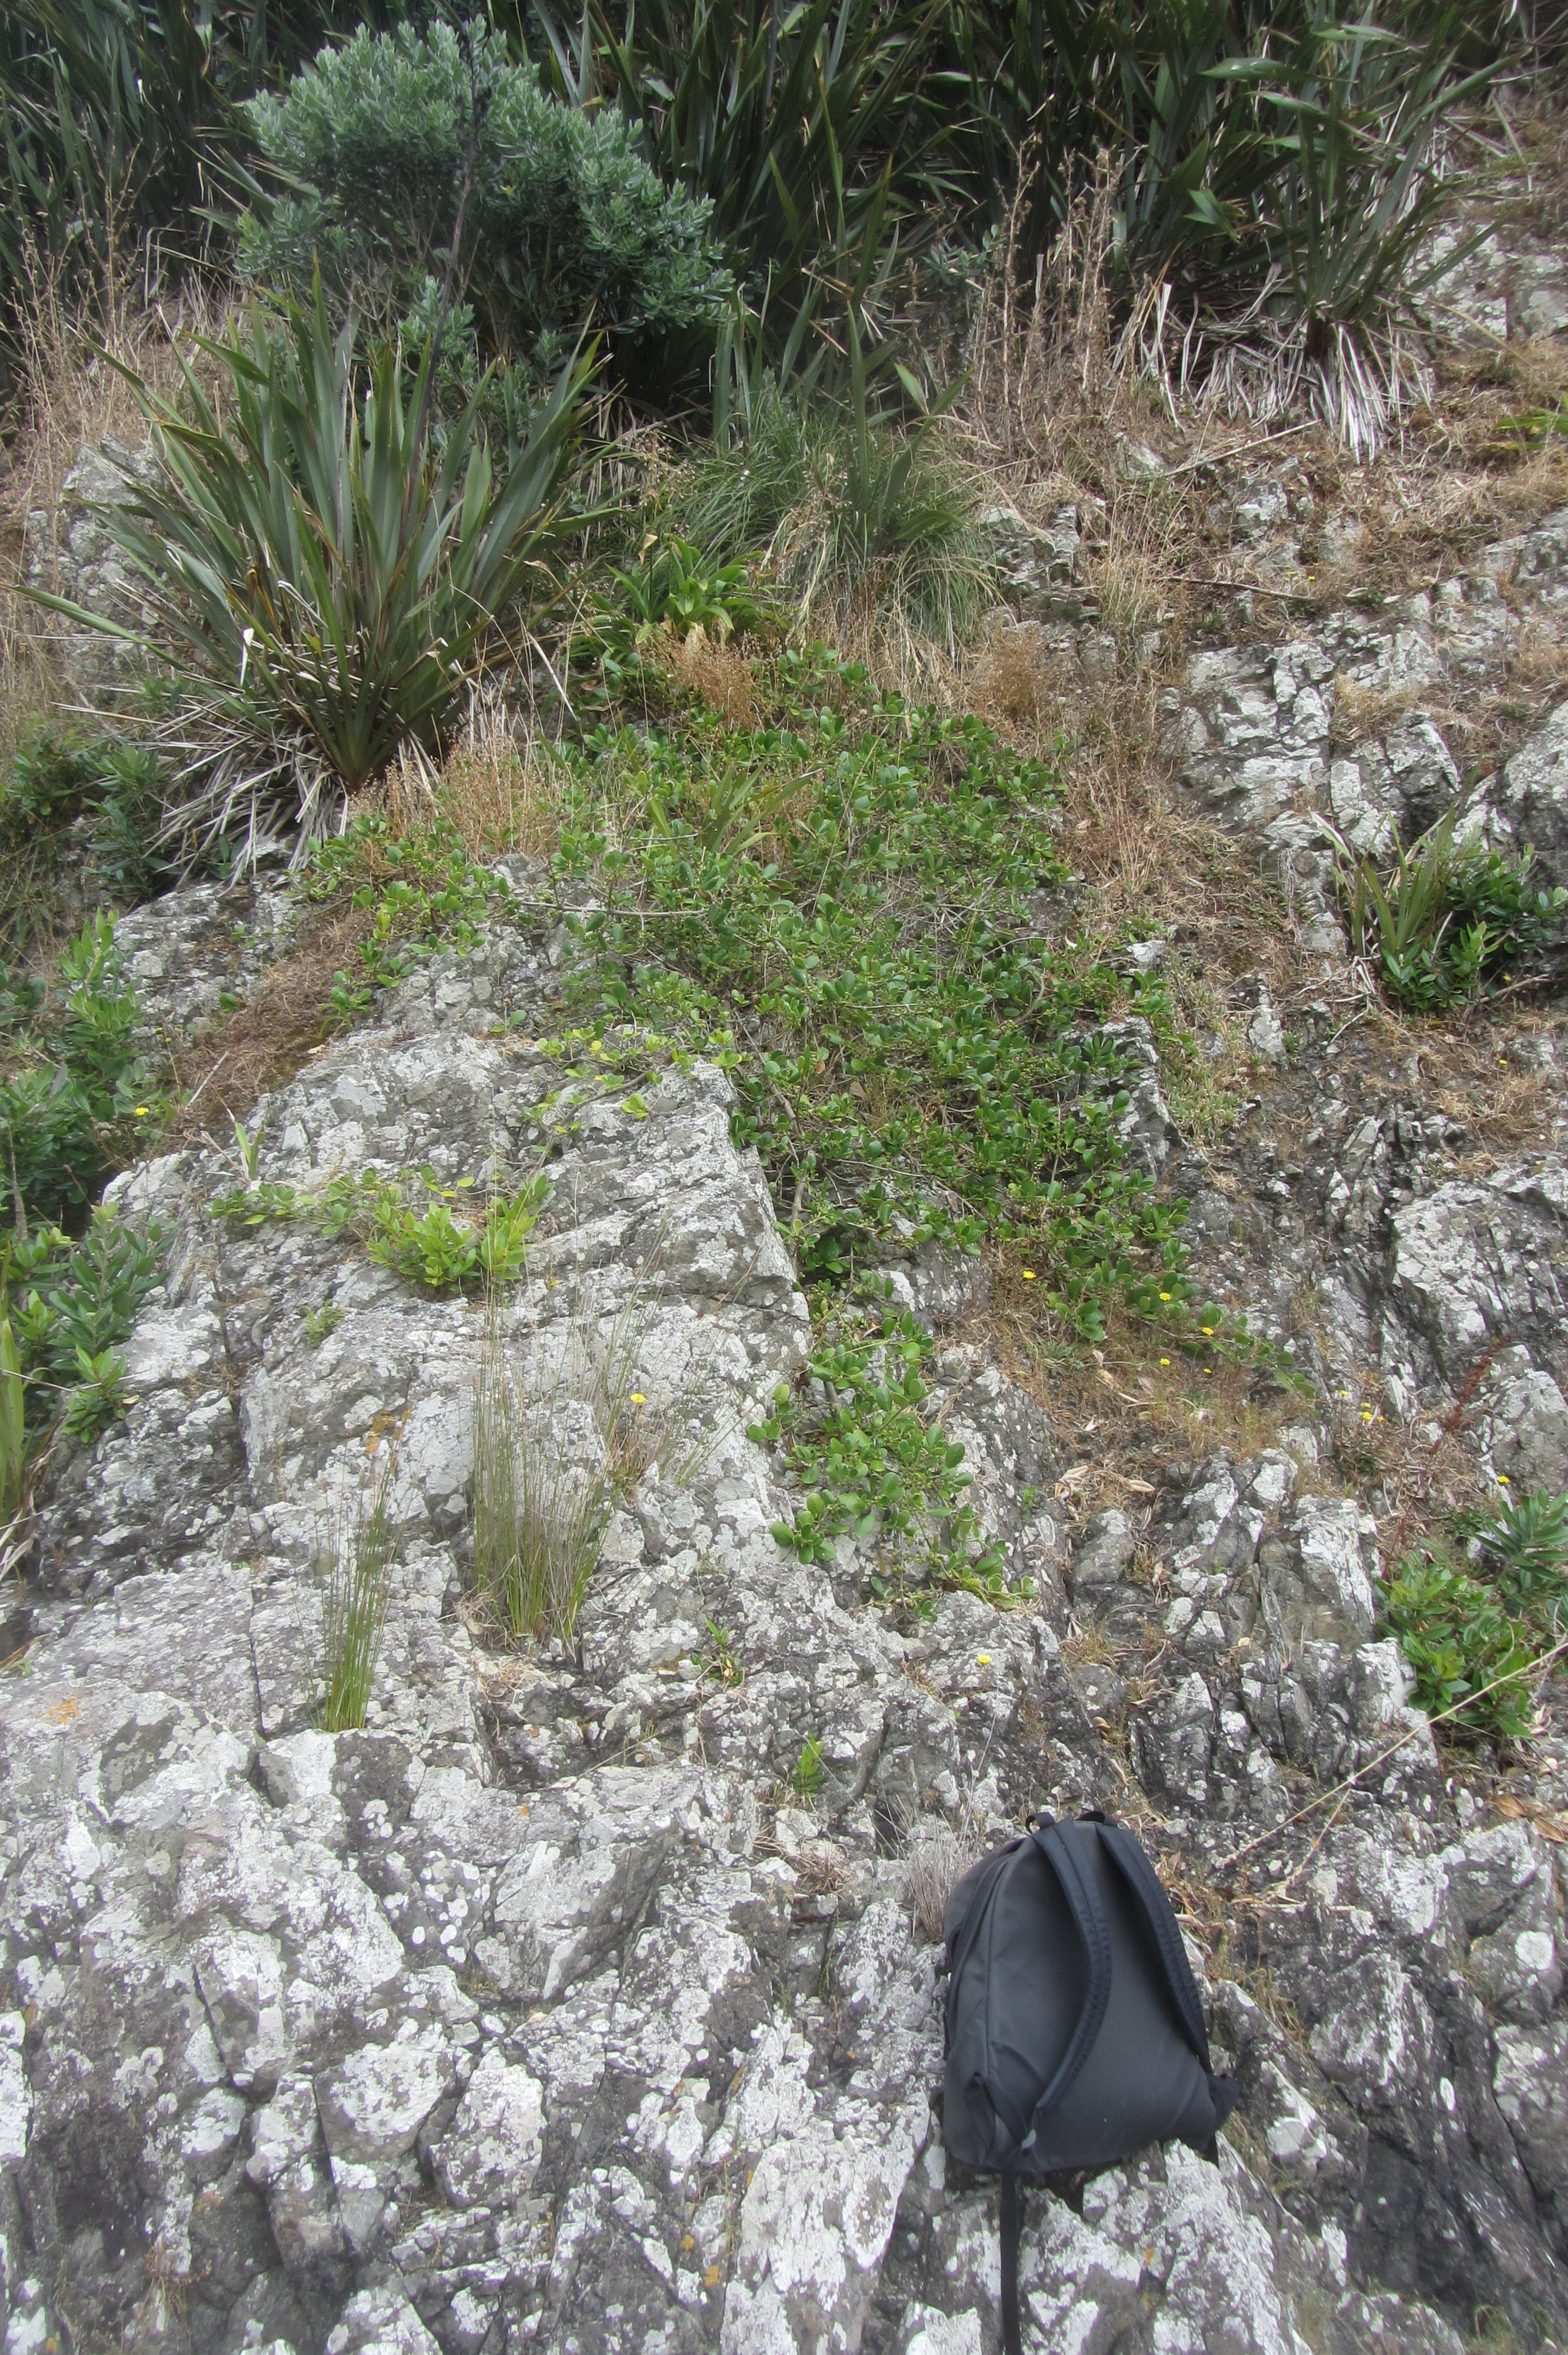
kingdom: Plantae
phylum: Tracheophyta
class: Magnoliopsida
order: Gentianales
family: Rubiaceae
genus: Coprosma
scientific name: Coprosma repens
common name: Tree bedstraw
